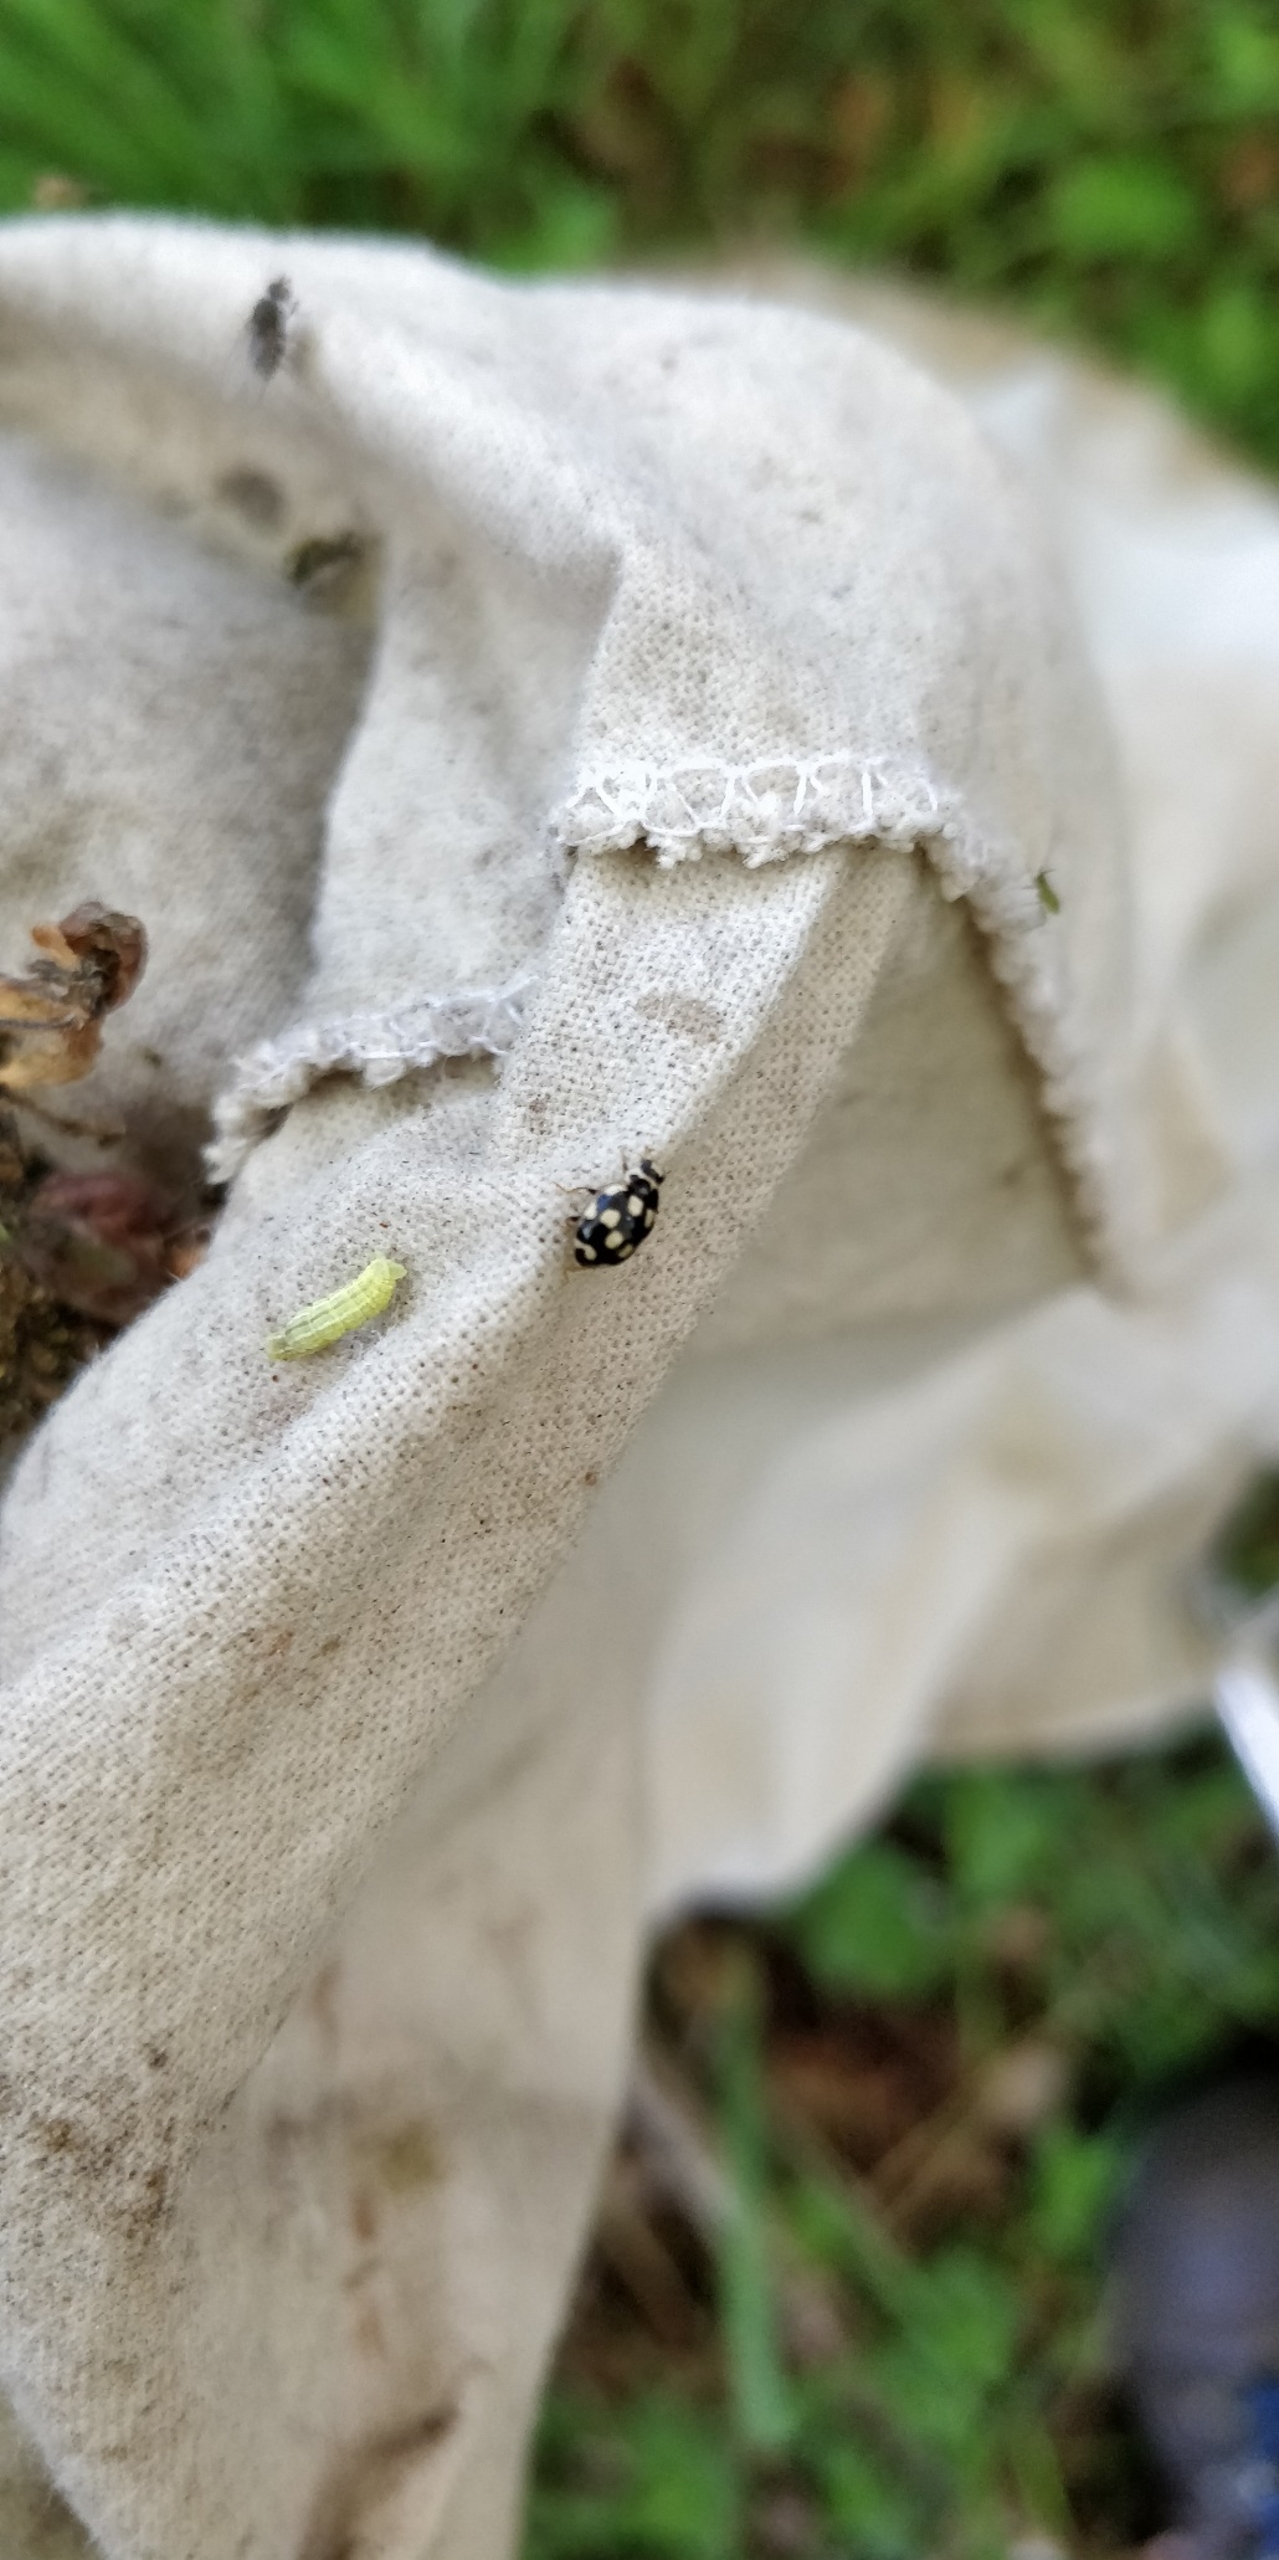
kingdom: Animalia
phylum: Arthropoda
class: Insecta
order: Coleoptera
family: Coccinellidae
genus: Propylaea
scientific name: Propylaea quatuordecimpunctata
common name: Skakbræt
